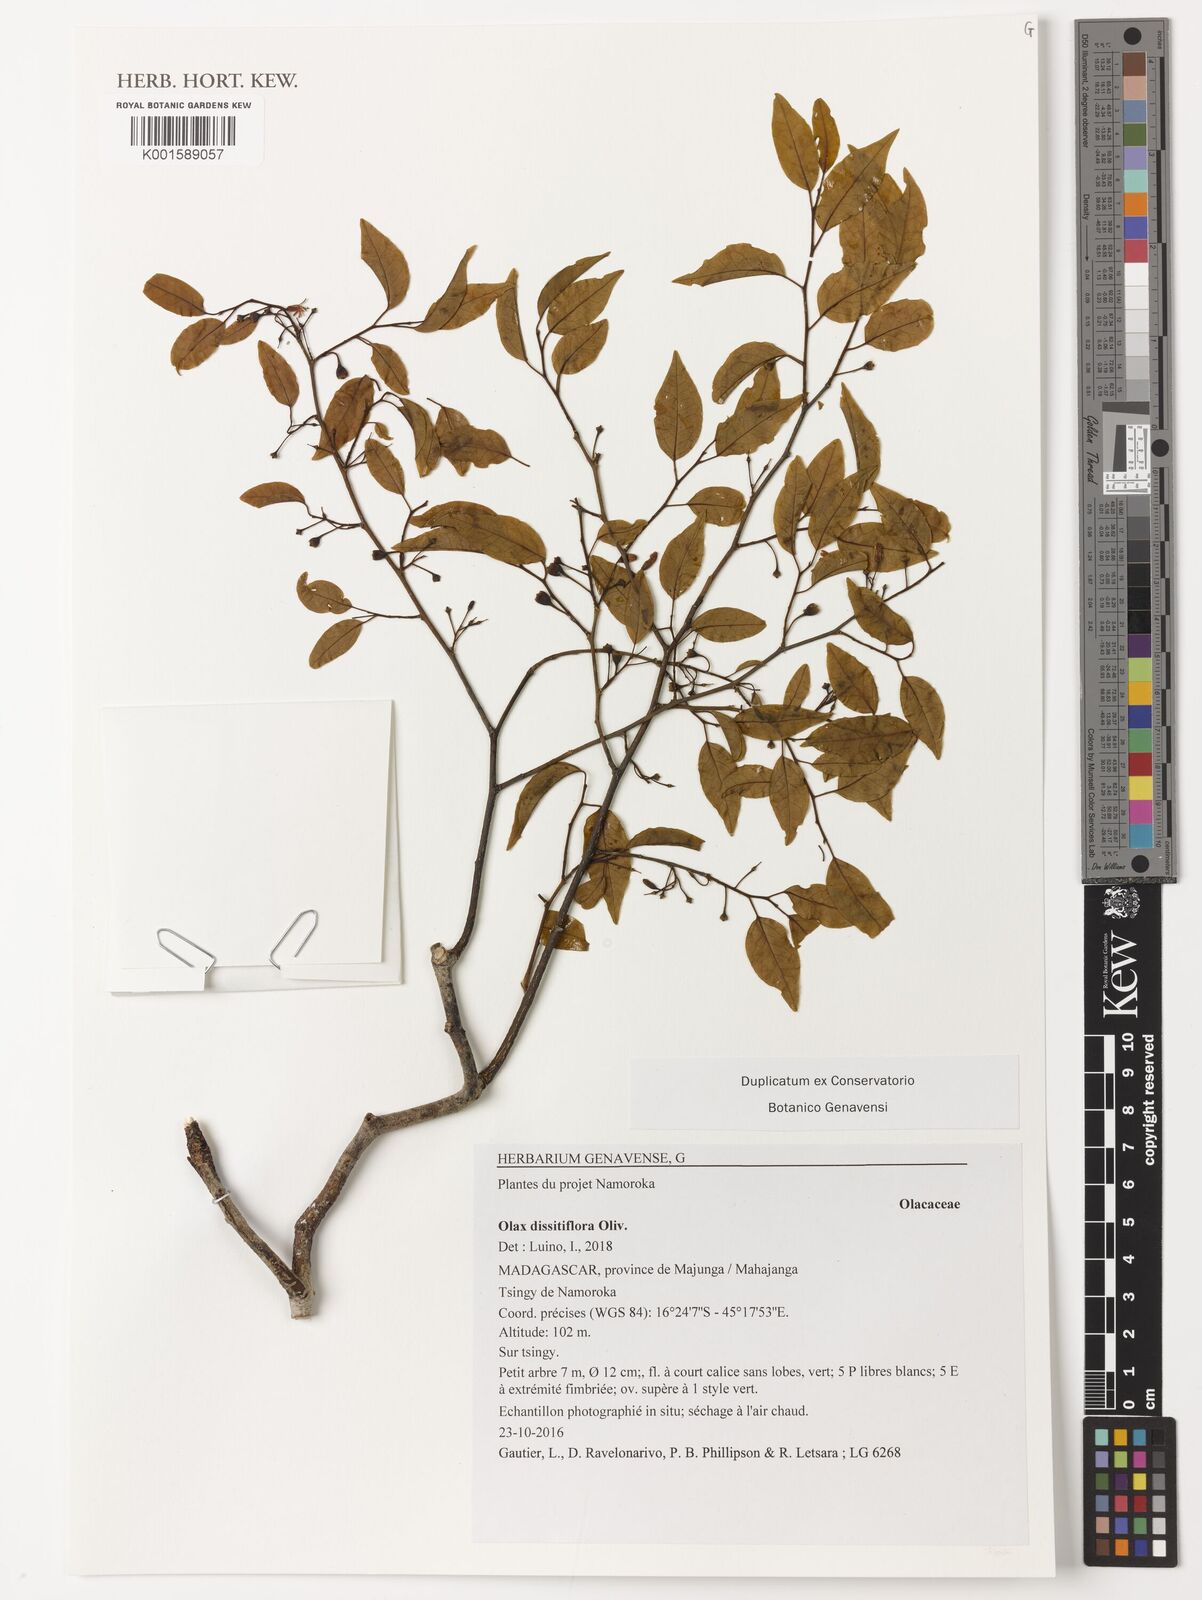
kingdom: Plantae
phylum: Tracheophyta
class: Magnoliopsida
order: Santalales
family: Olacaceae
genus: Olax
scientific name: Olax dissitiflora
